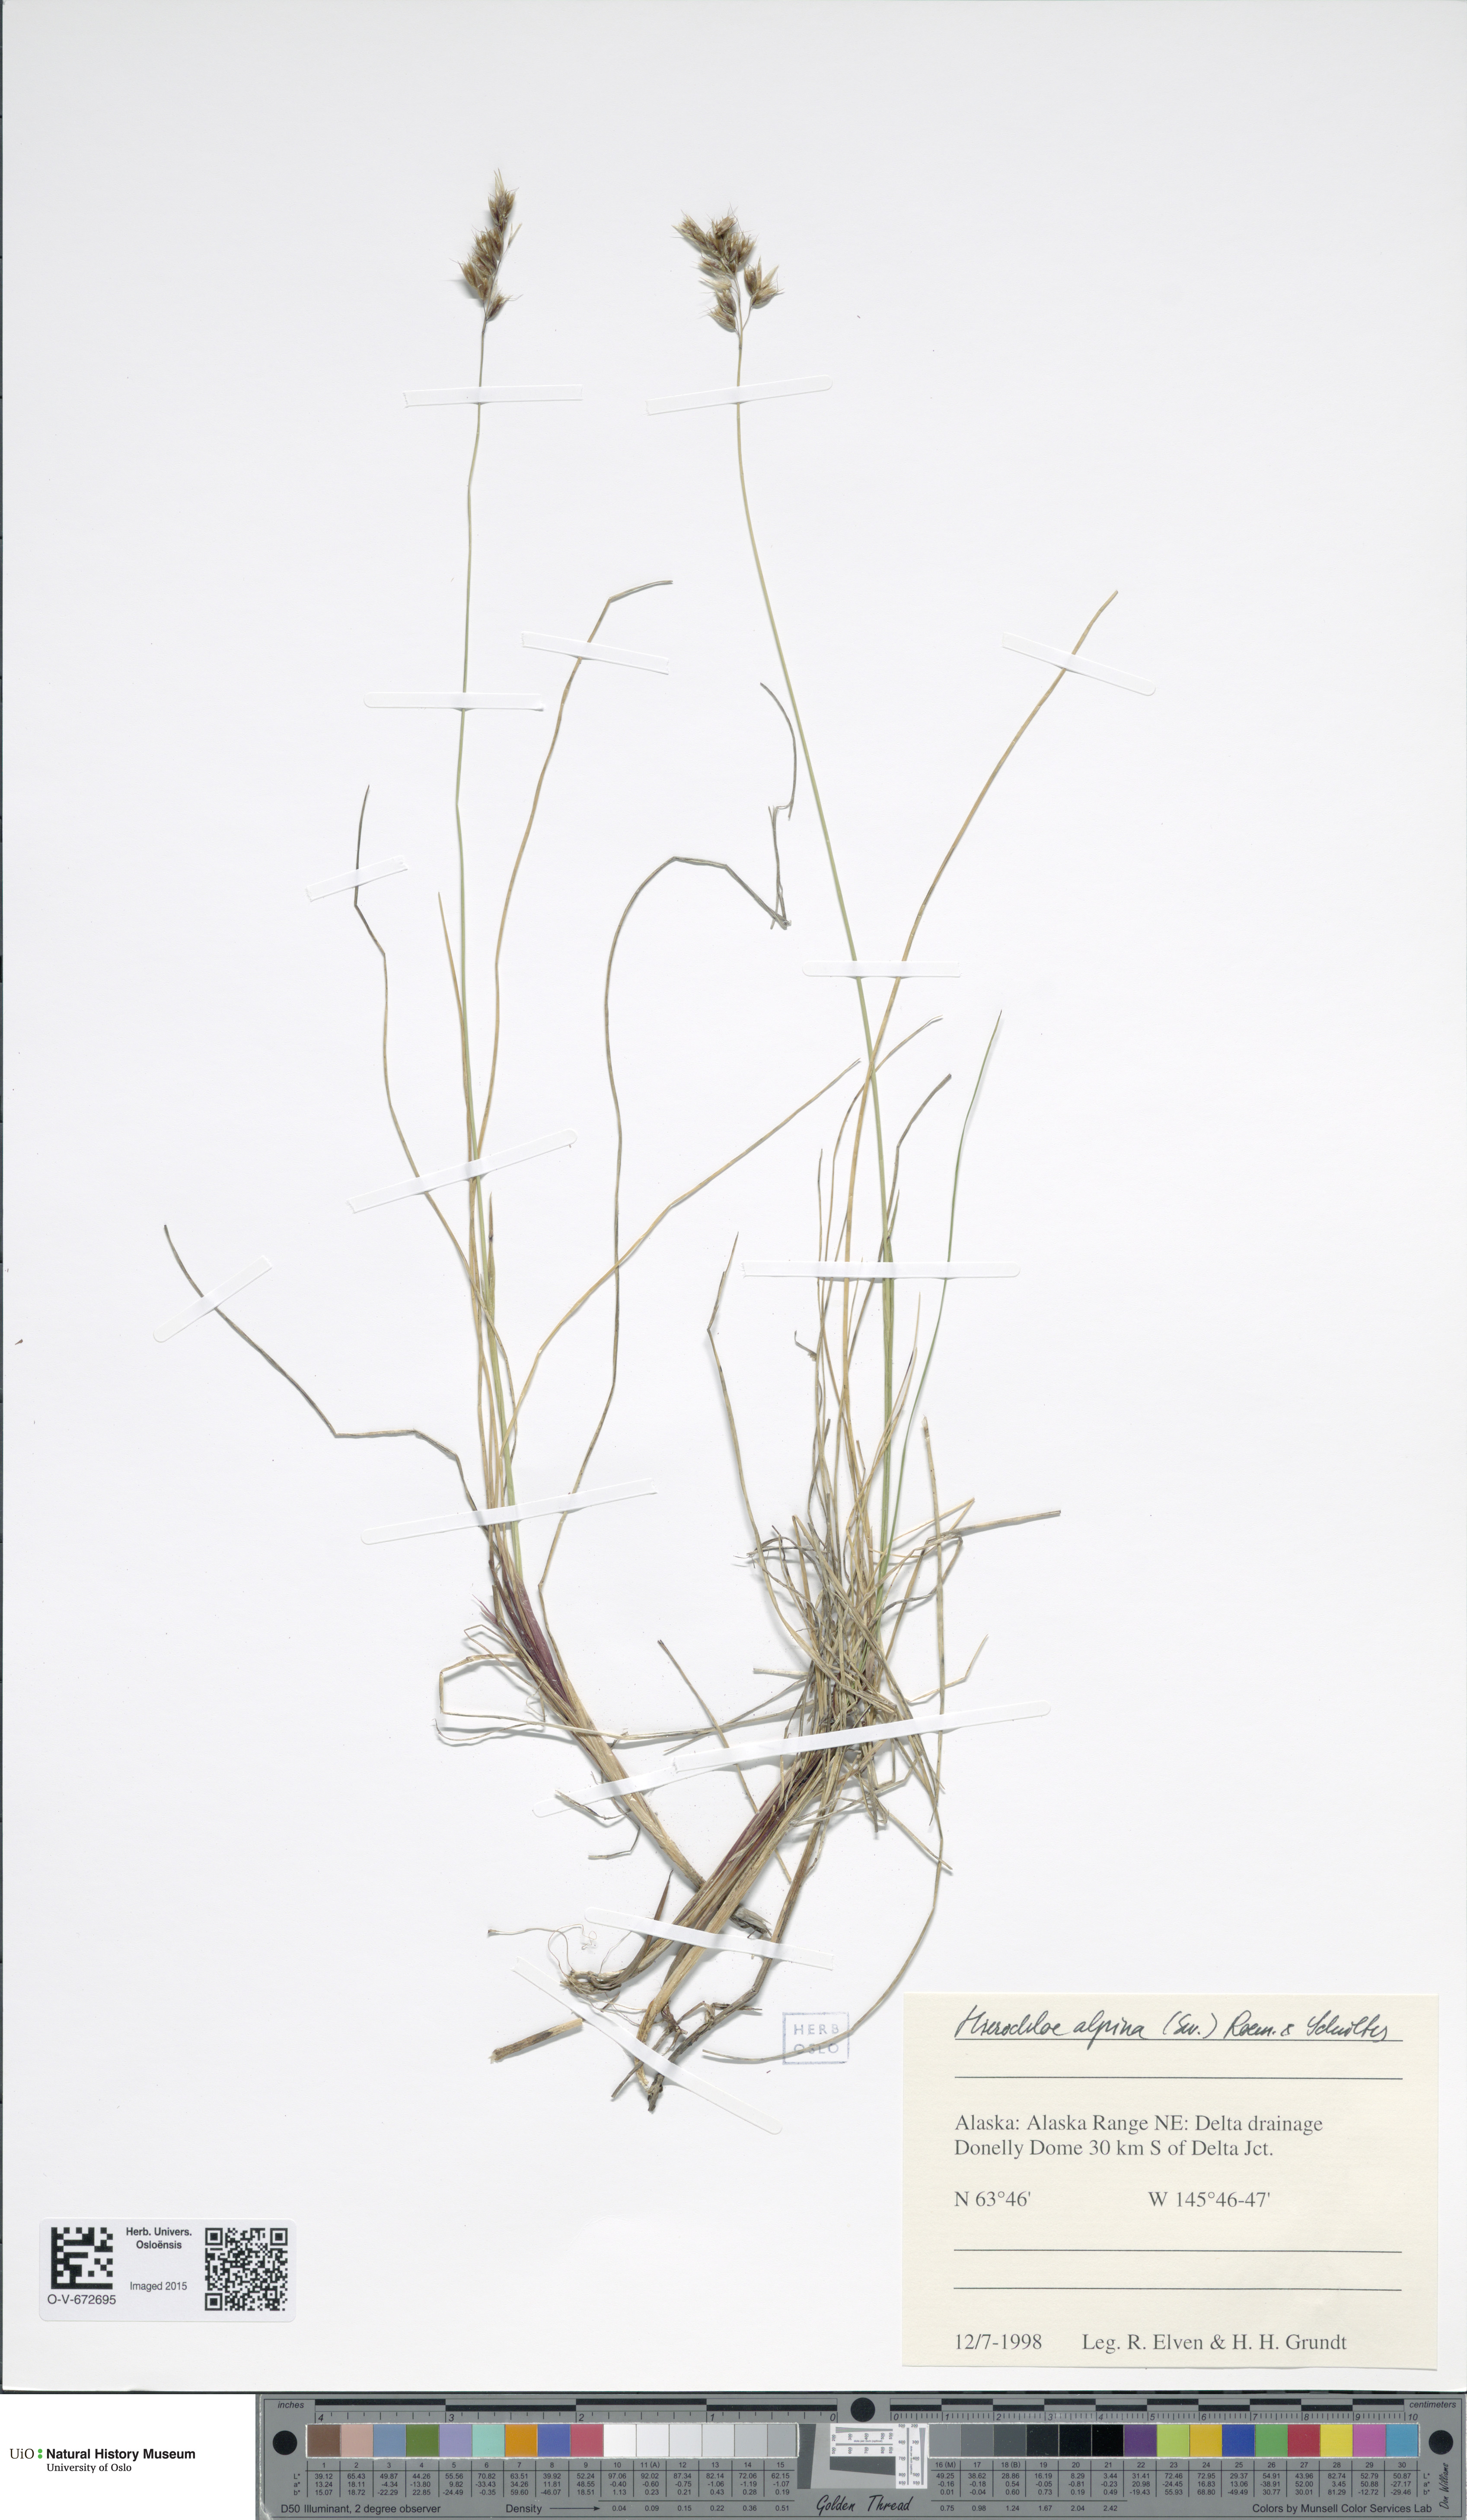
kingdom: Plantae
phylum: Tracheophyta
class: Liliopsida
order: Poales
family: Poaceae
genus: Anthoxanthum
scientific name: Anthoxanthum monticola
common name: Alpine sweetgrass
